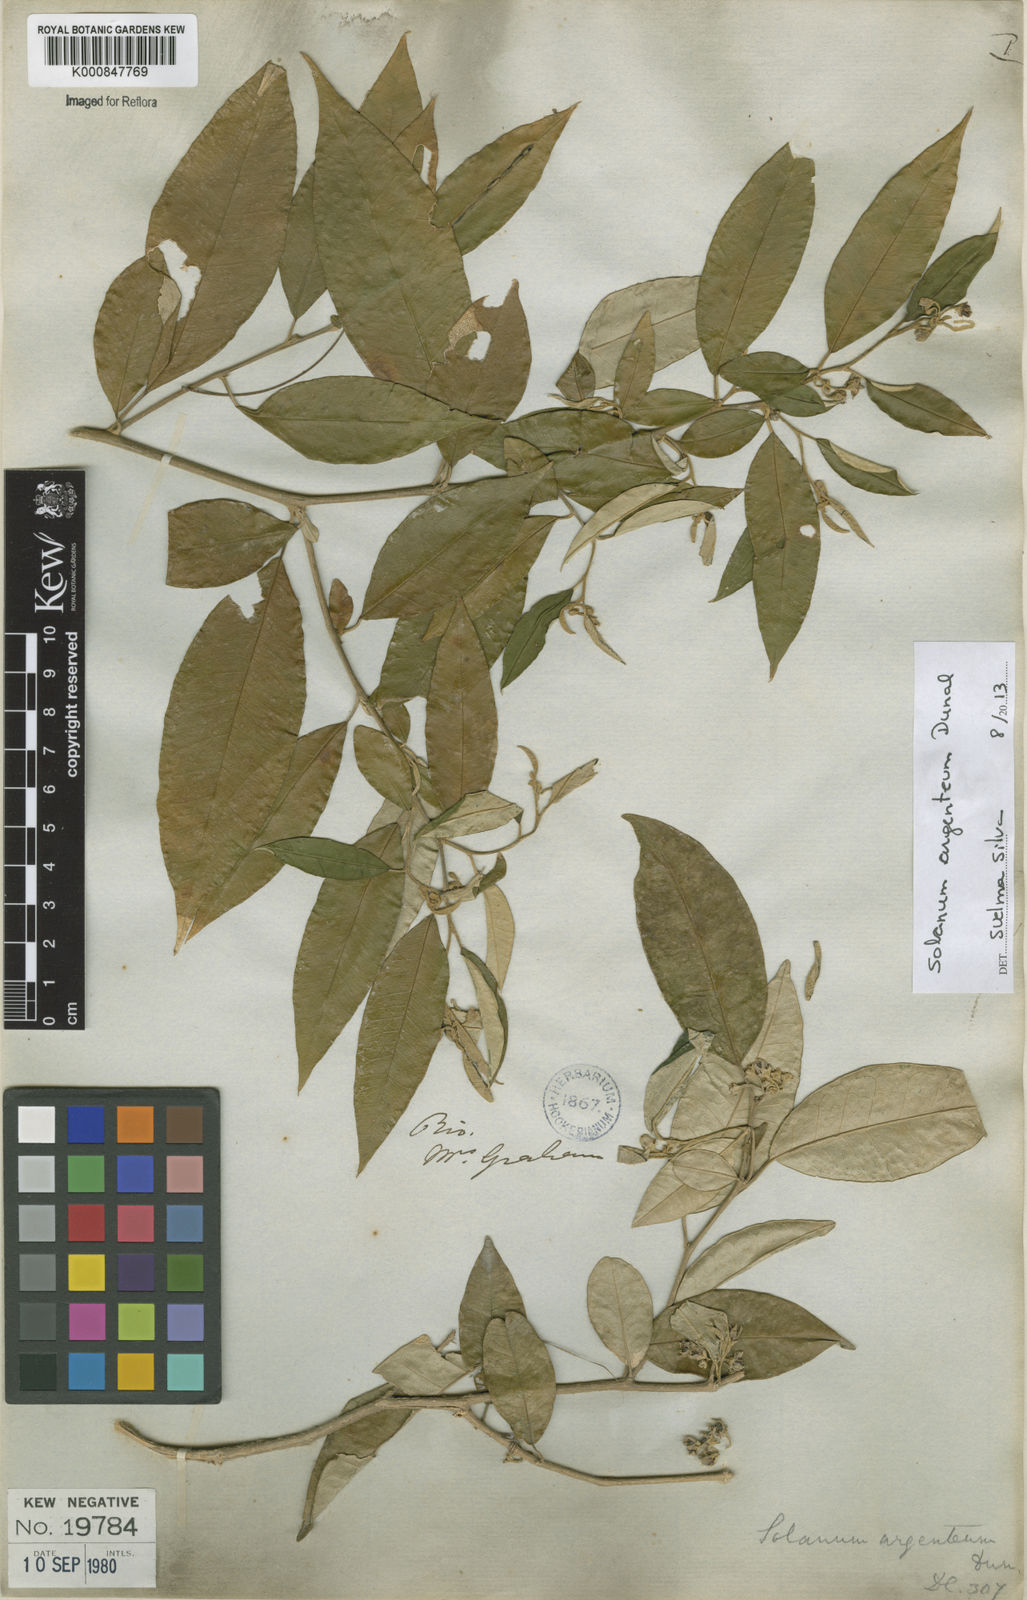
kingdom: Plantae
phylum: Tracheophyta
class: Magnoliopsida
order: Solanales
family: Solanaceae
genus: Solanum
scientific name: Solanum swartzianum
